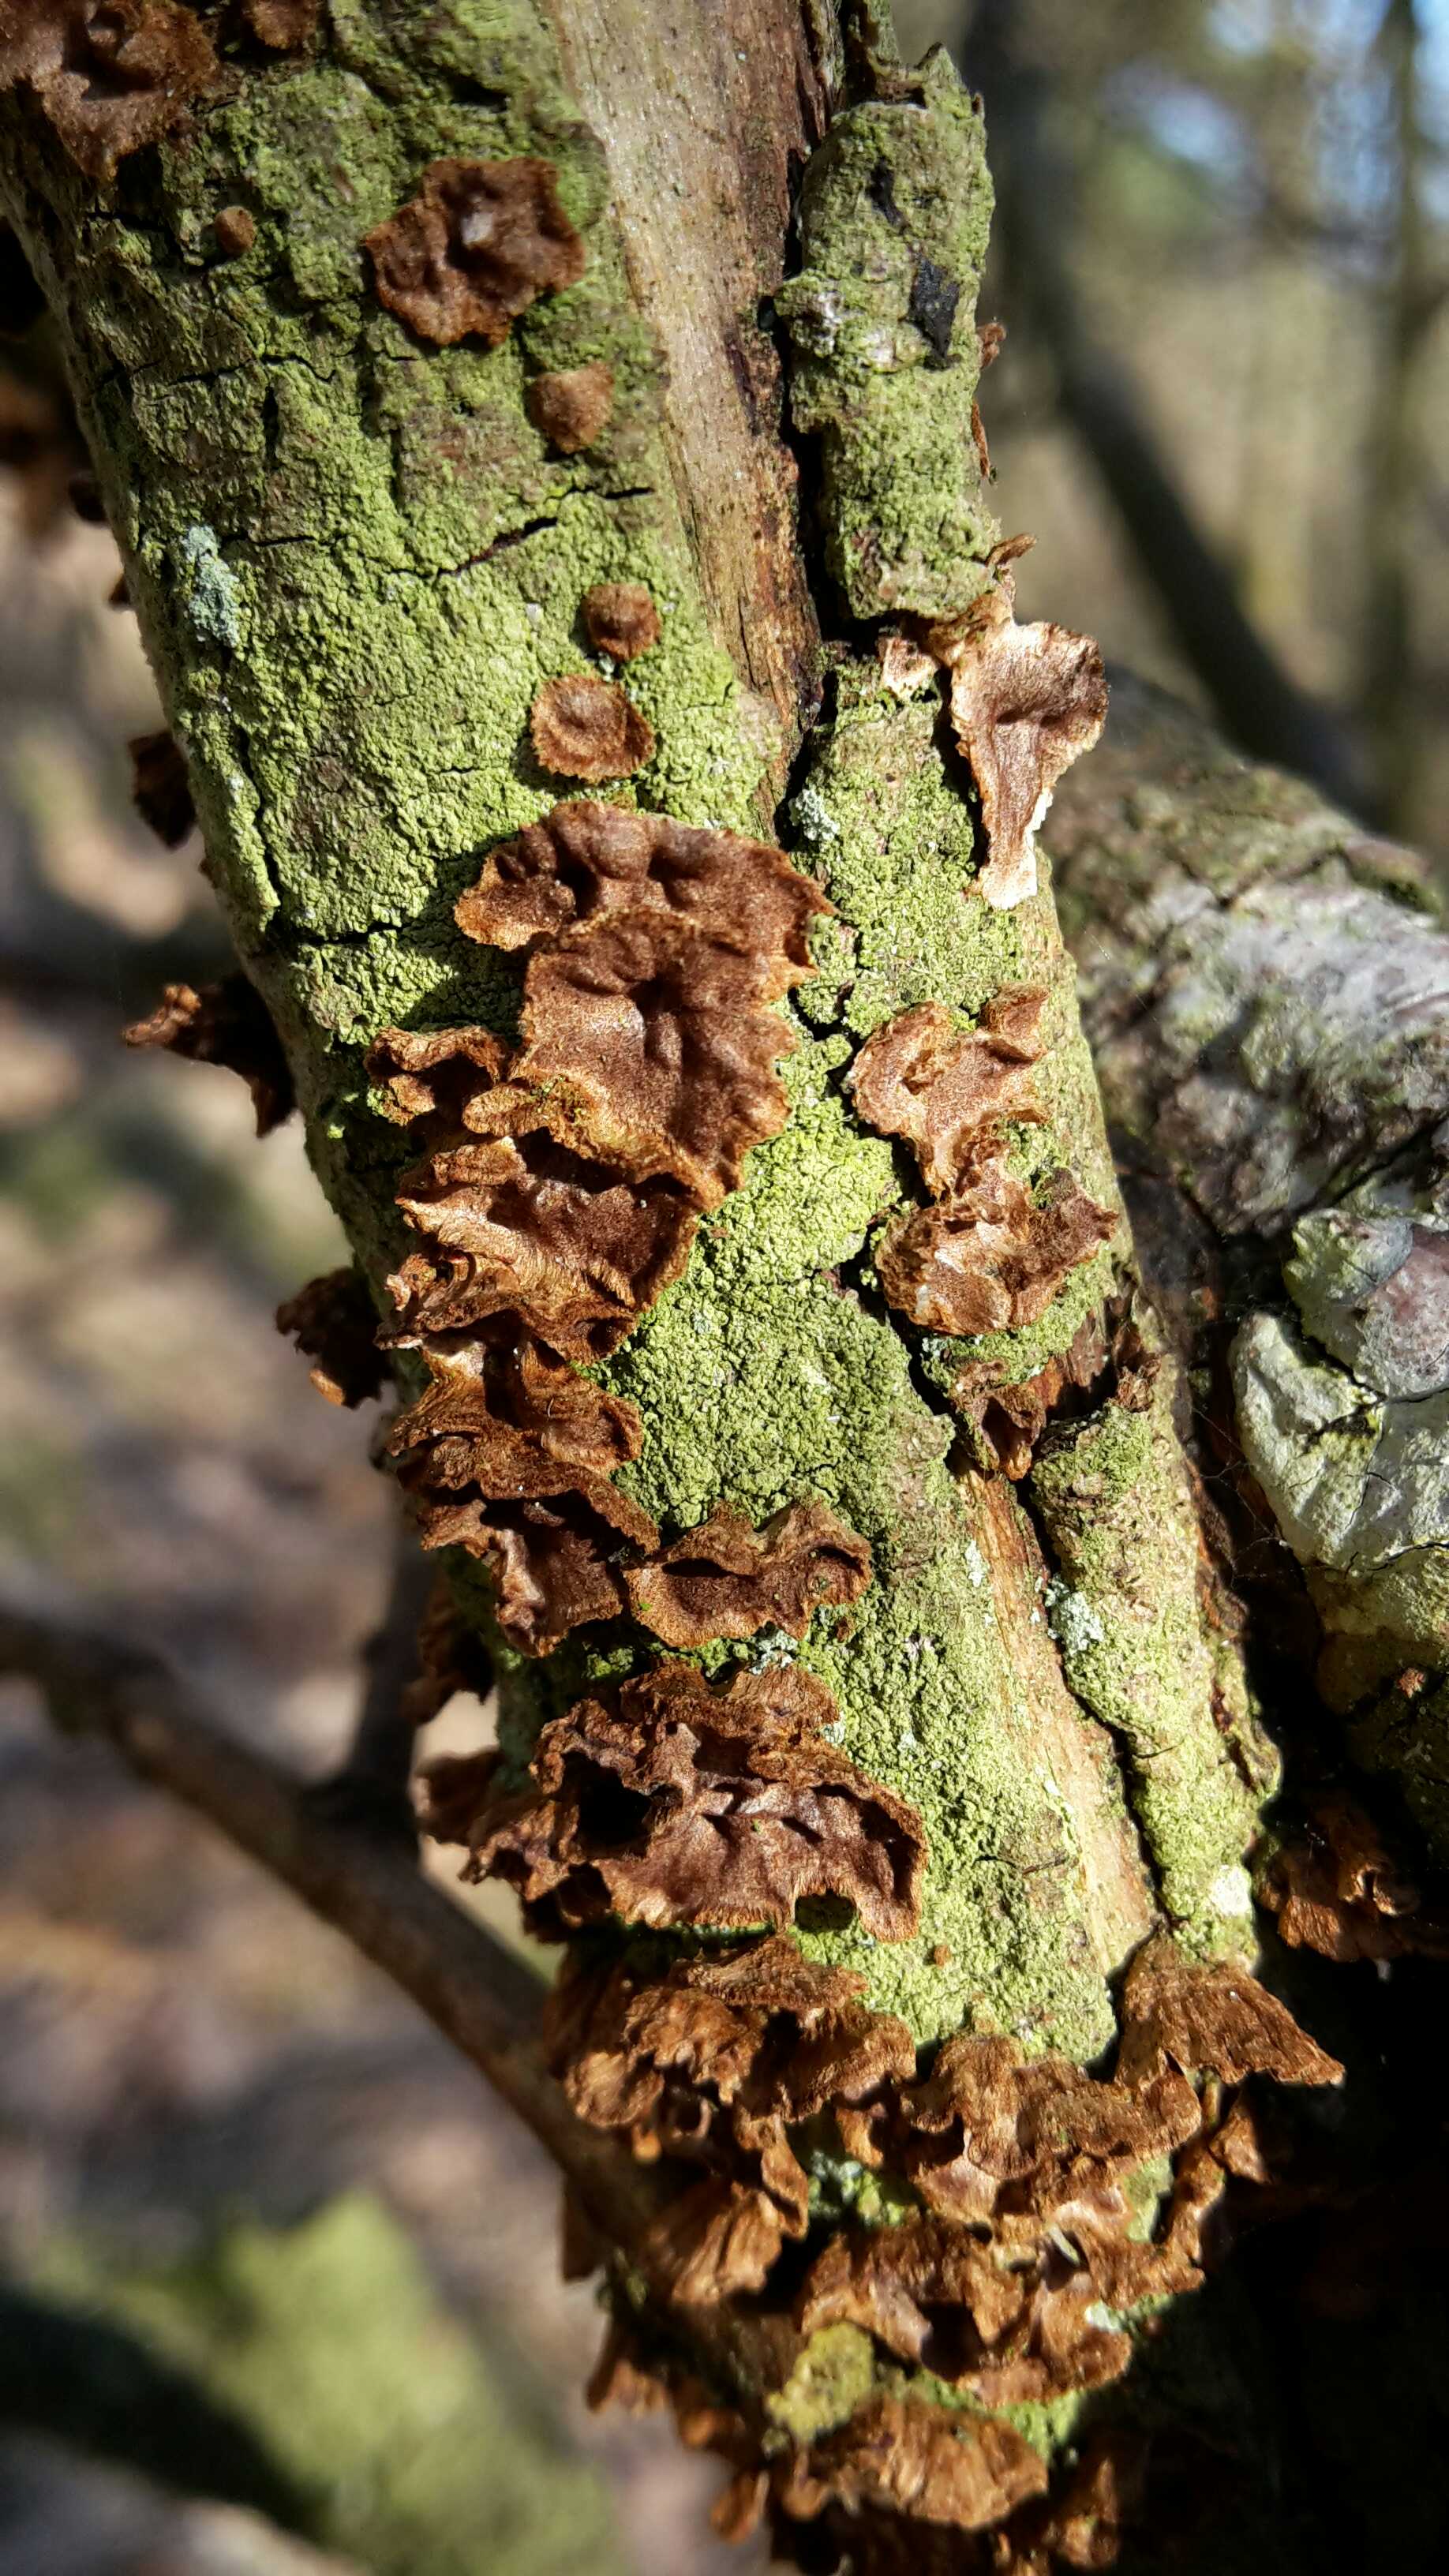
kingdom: Fungi
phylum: Basidiomycota
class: Agaricomycetes
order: Hymenochaetales
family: Hymenochaetaceae
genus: Hydnoporia
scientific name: Hydnoporia tabacina
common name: tobaksbrun ruslædersvamp
